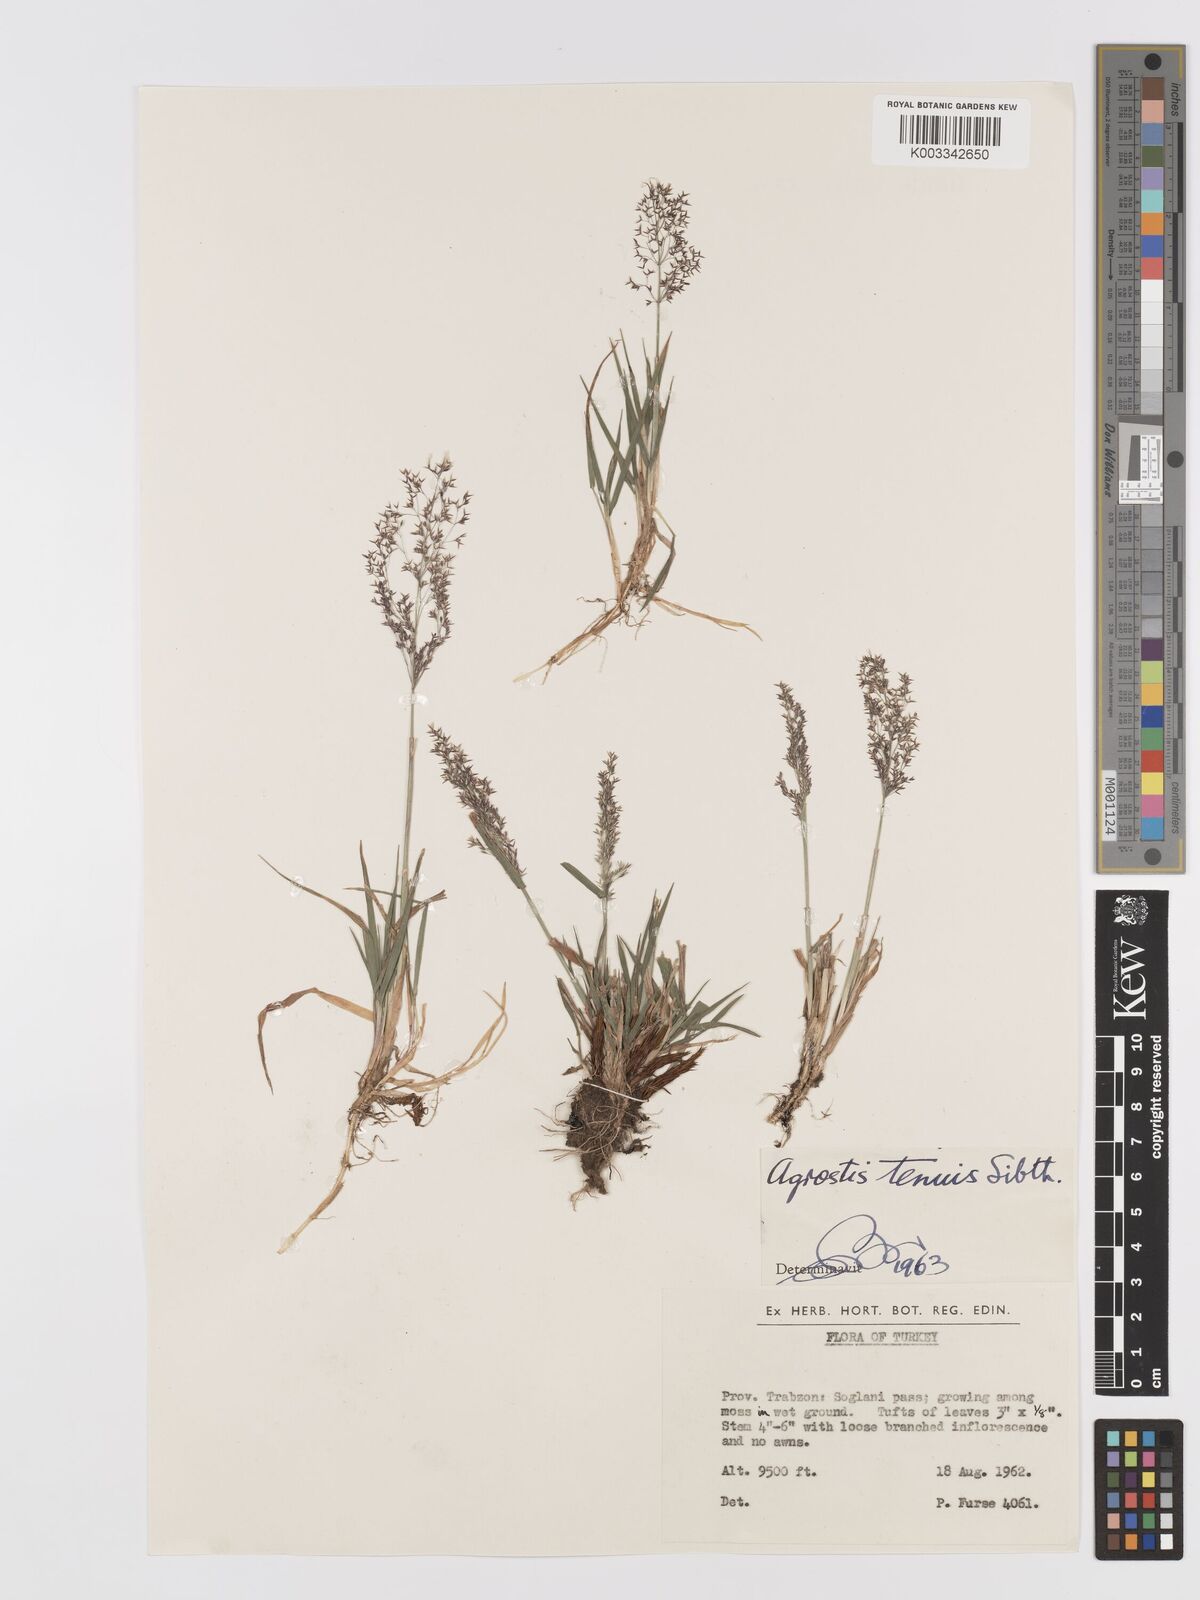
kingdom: Plantae
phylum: Tracheophyta
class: Liliopsida
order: Poales
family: Poaceae
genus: Agrostis
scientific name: Agrostis capillaris
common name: Colonial bentgrass
